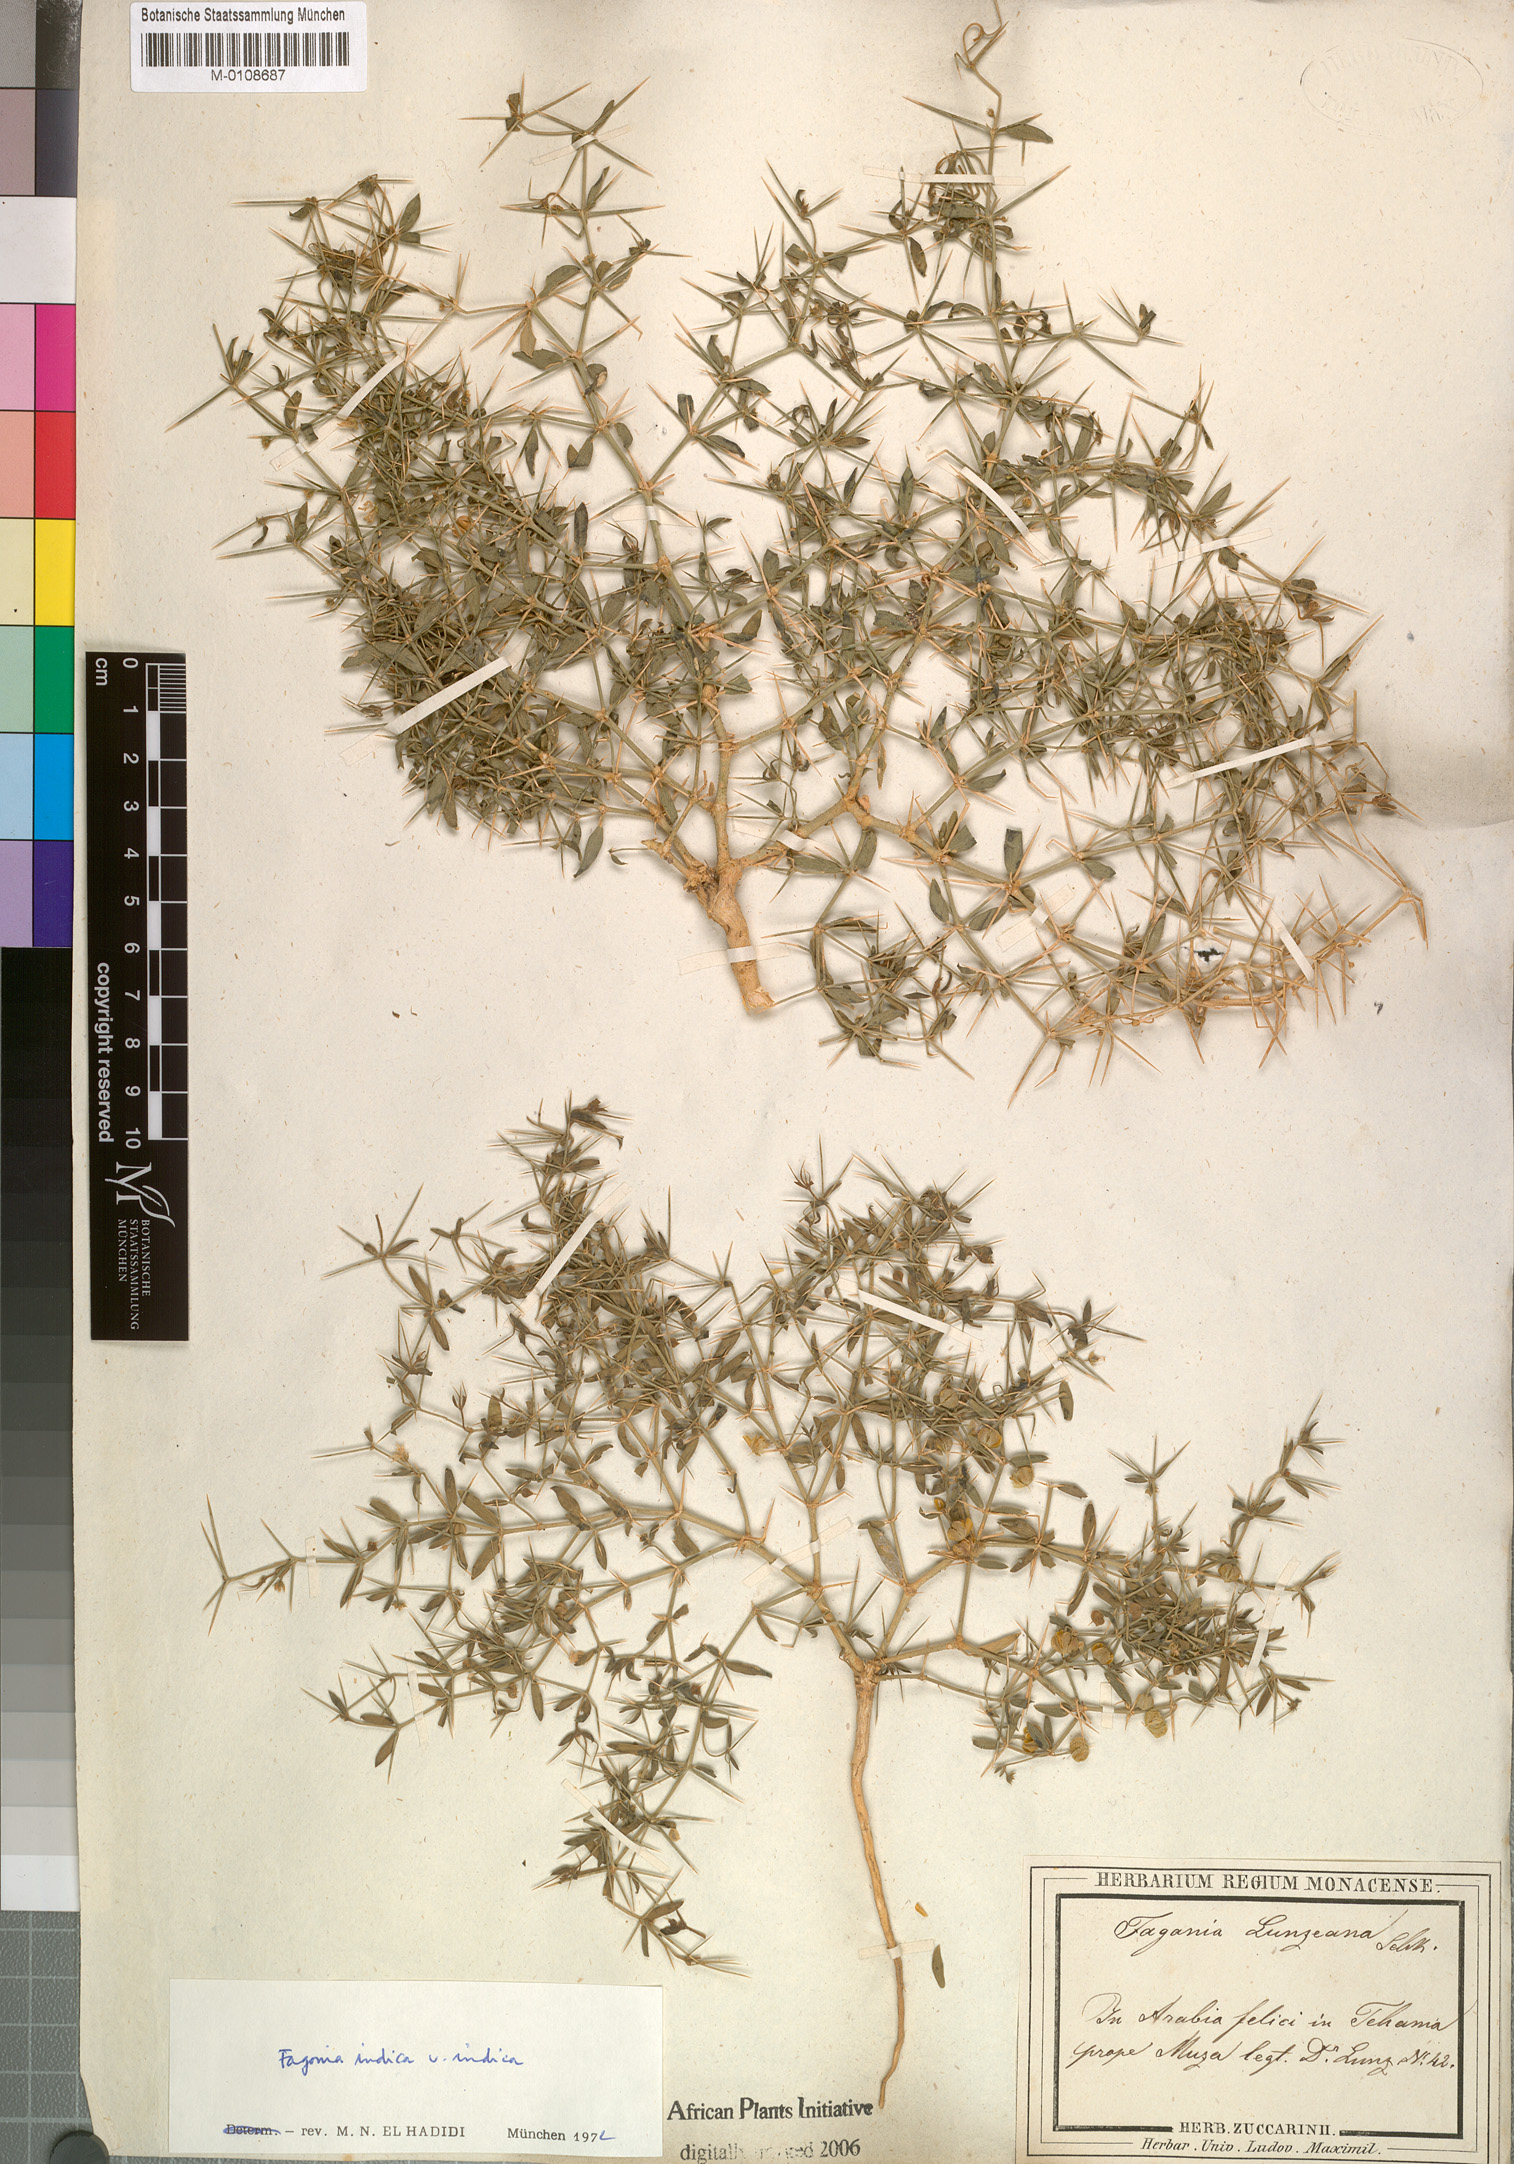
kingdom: Plantae
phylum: Tracheophyta
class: Magnoliopsida
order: Zygophyllales
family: Zygophyllaceae
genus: Fagonia
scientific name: Fagonia indica
